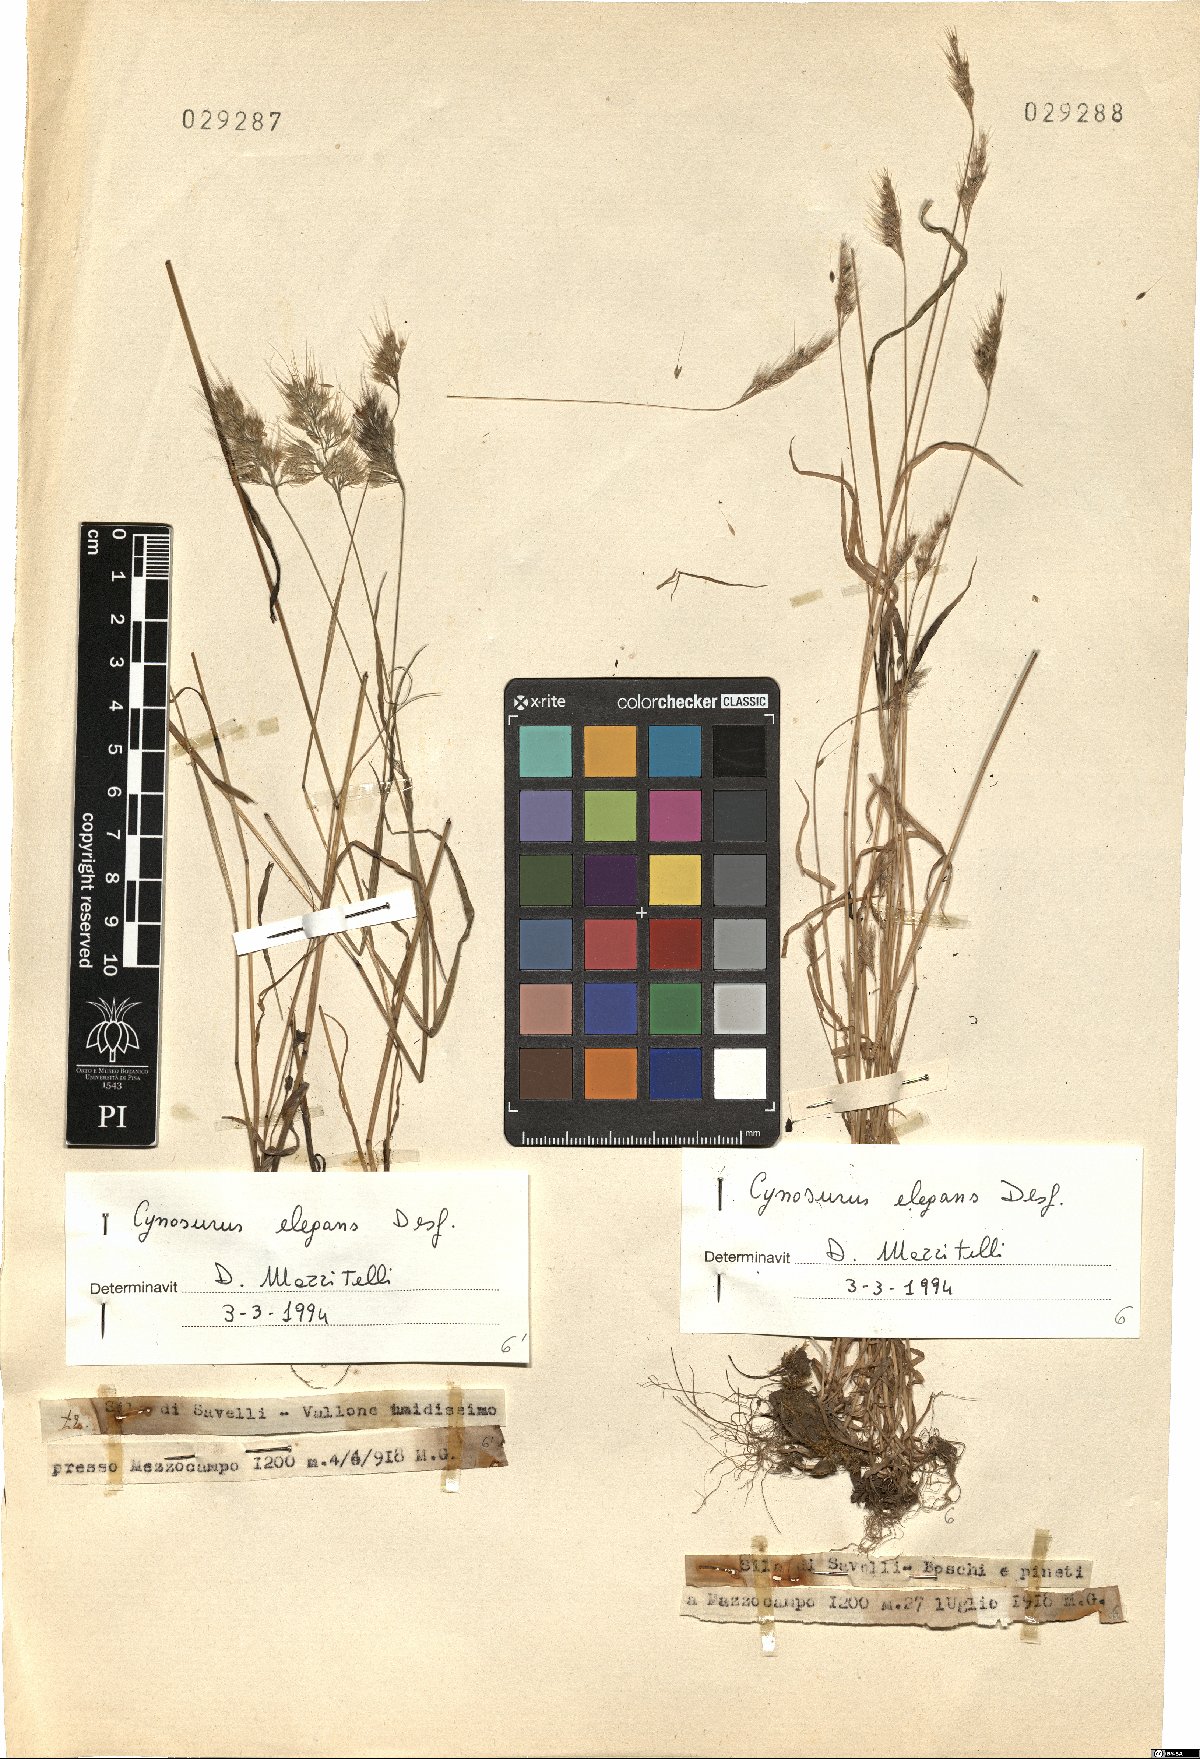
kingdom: Plantae
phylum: Tracheophyta
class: Liliopsida
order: Poales
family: Poaceae
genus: Cynosurus
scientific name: Cynosurus elegans
